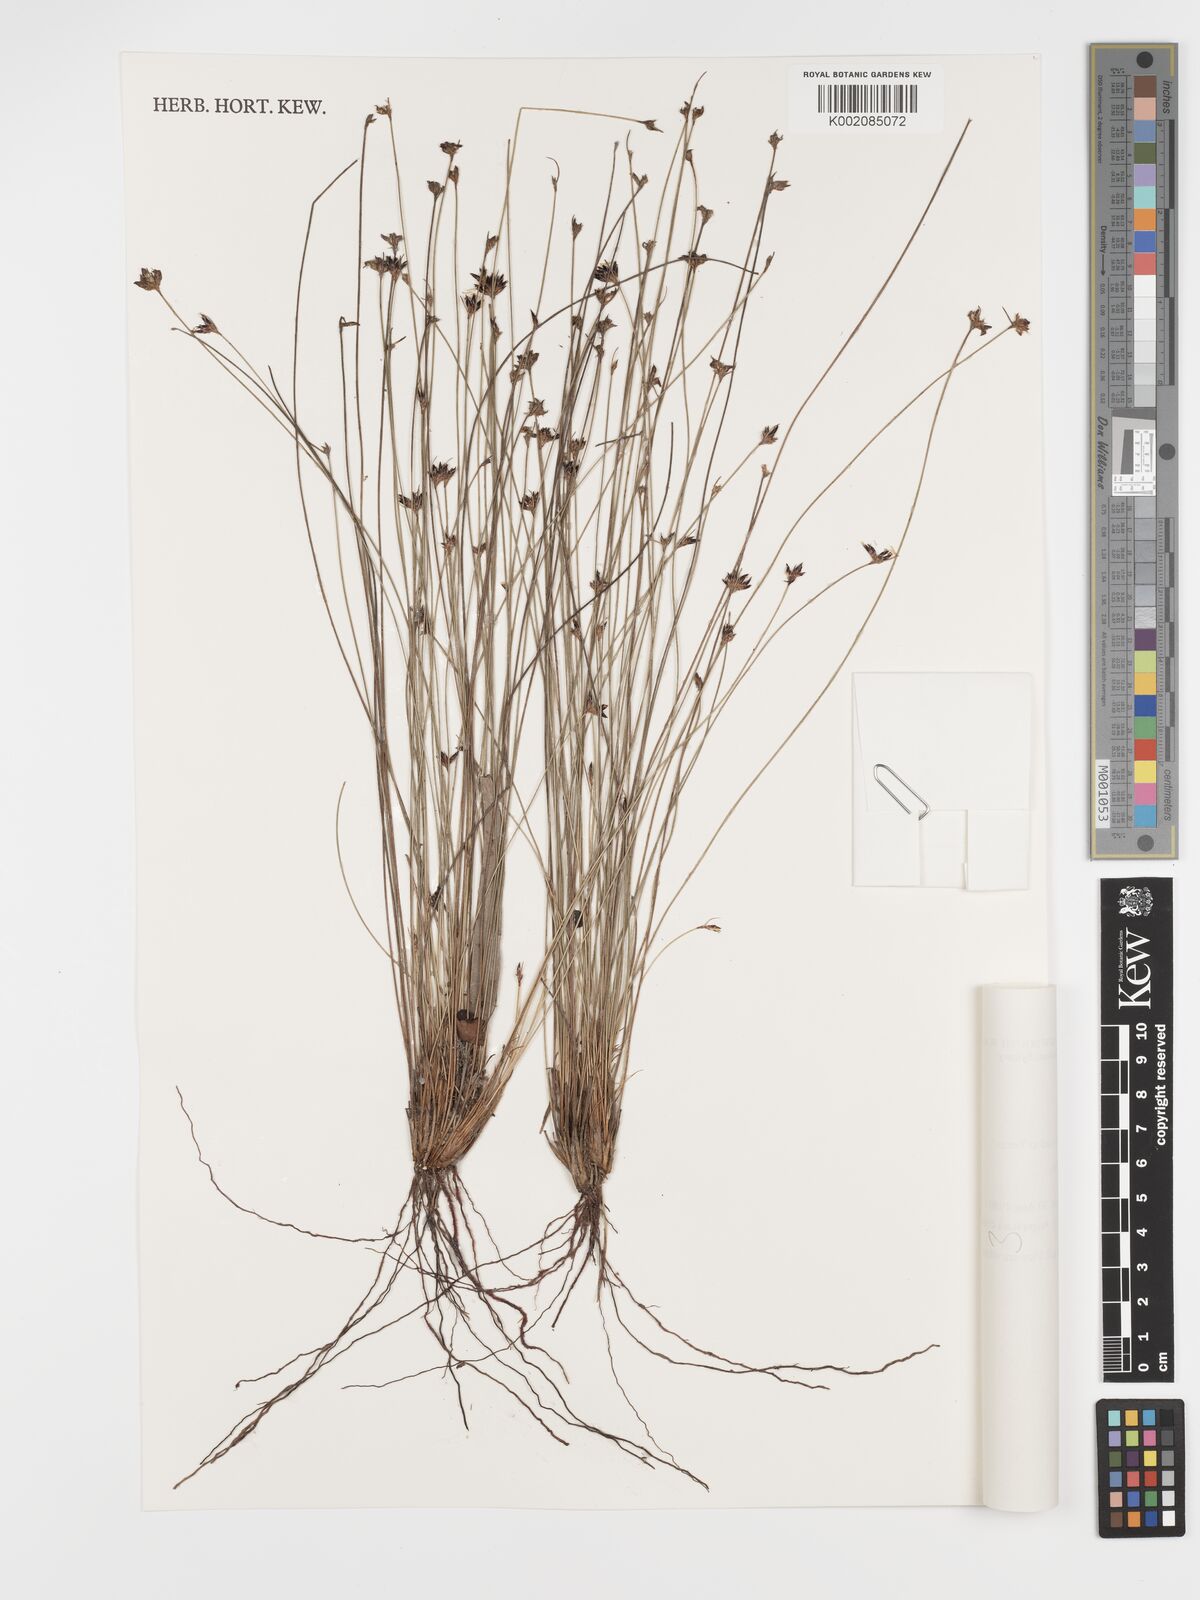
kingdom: Plantae
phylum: Tracheophyta
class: Liliopsida
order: Poales
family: Cyperaceae
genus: Schoenus
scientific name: Schoenus ericetorum
